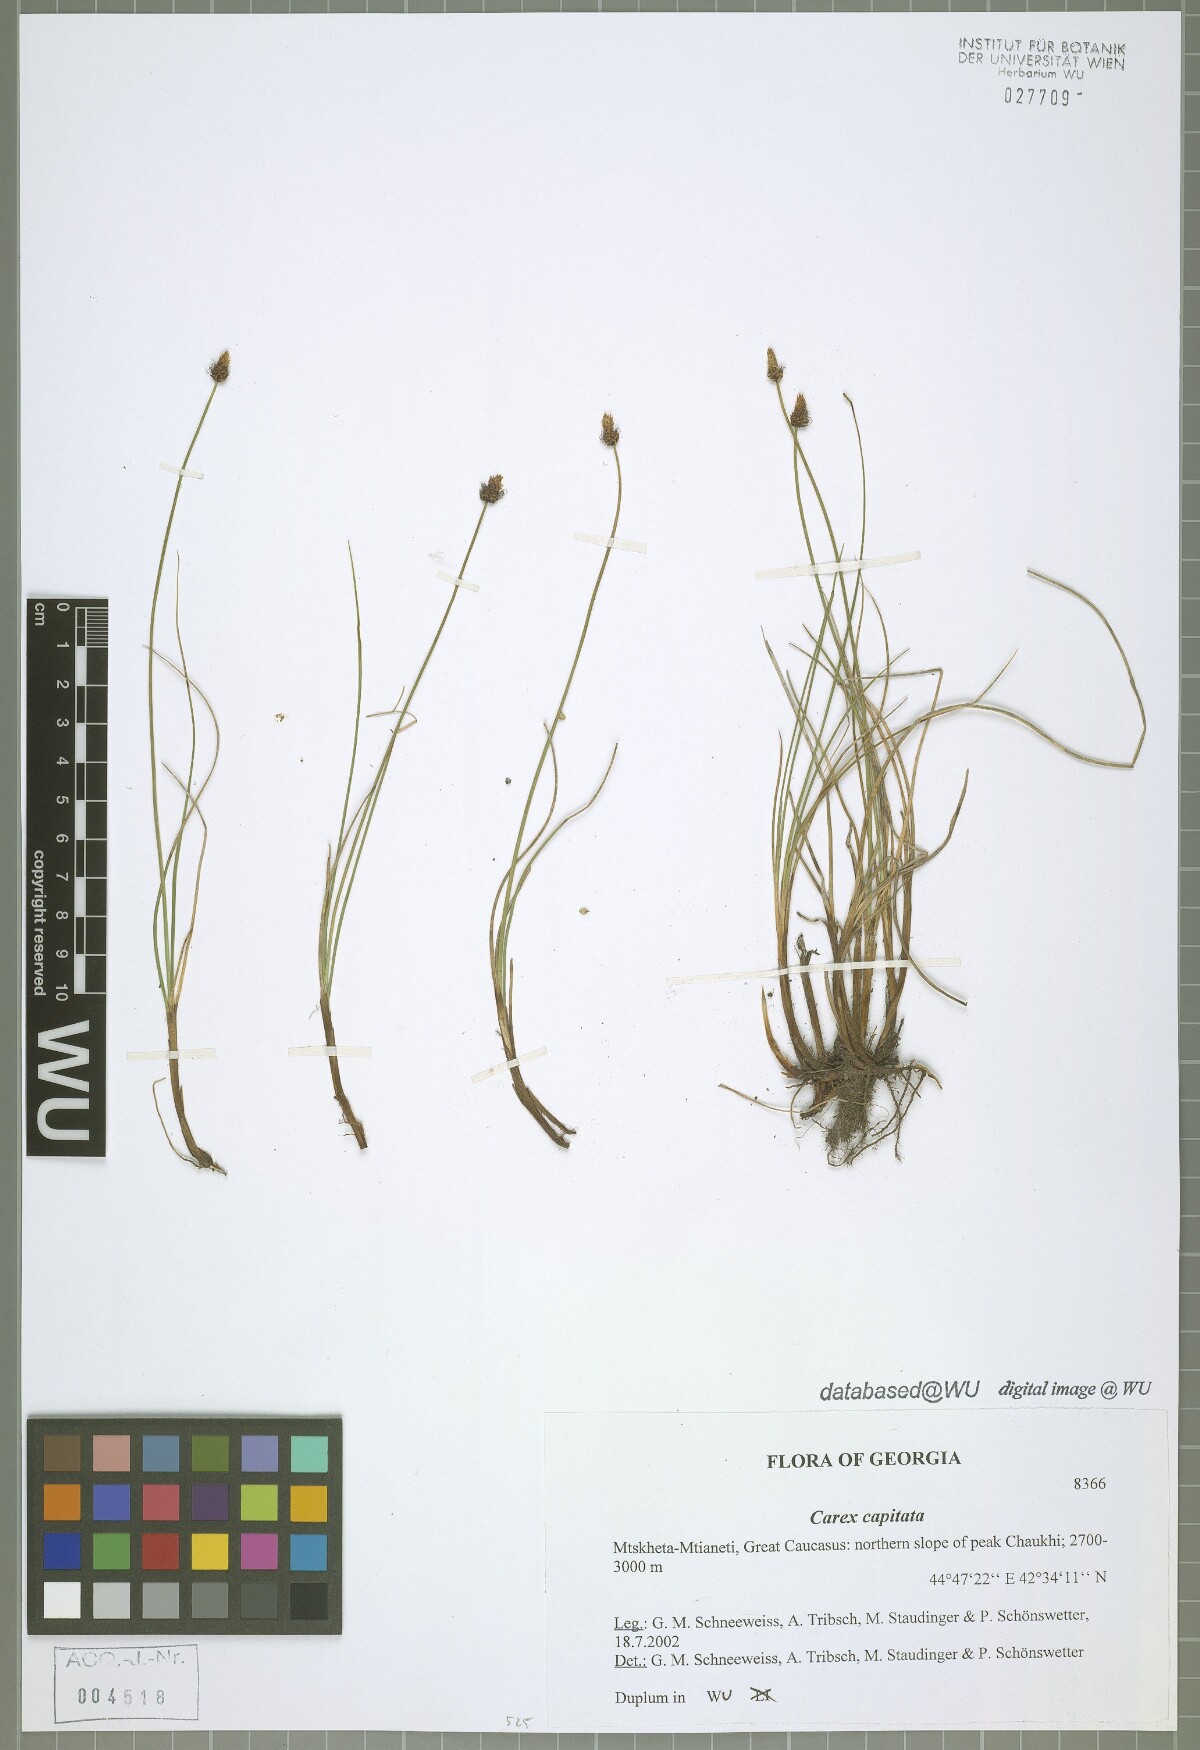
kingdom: Plantae
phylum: Tracheophyta
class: Liliopsida
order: Poales
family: Cyperaceae
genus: Carex
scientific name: Carex capitata
